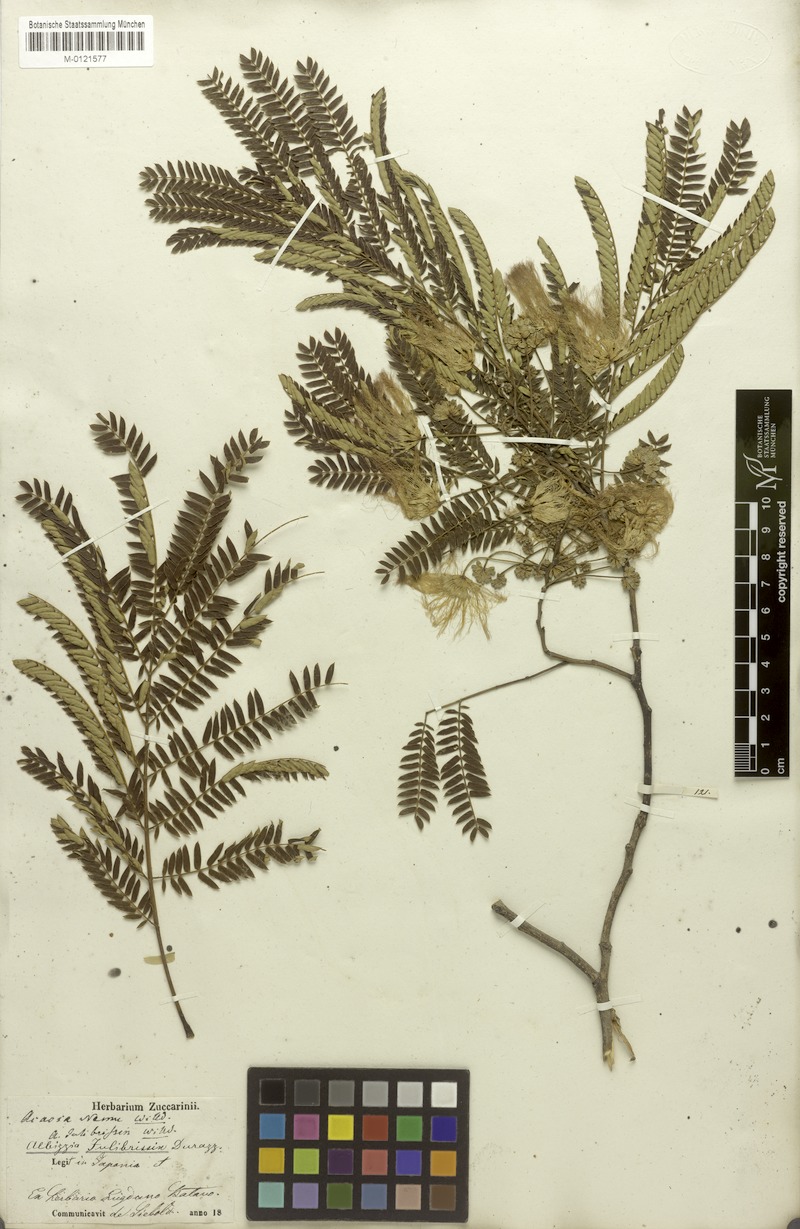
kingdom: Plantae
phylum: Tracheophyta
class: Magnoliopsida
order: Fabales
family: Fabaceae
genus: Albizia
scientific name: Albizia julibrissin
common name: Silktree
